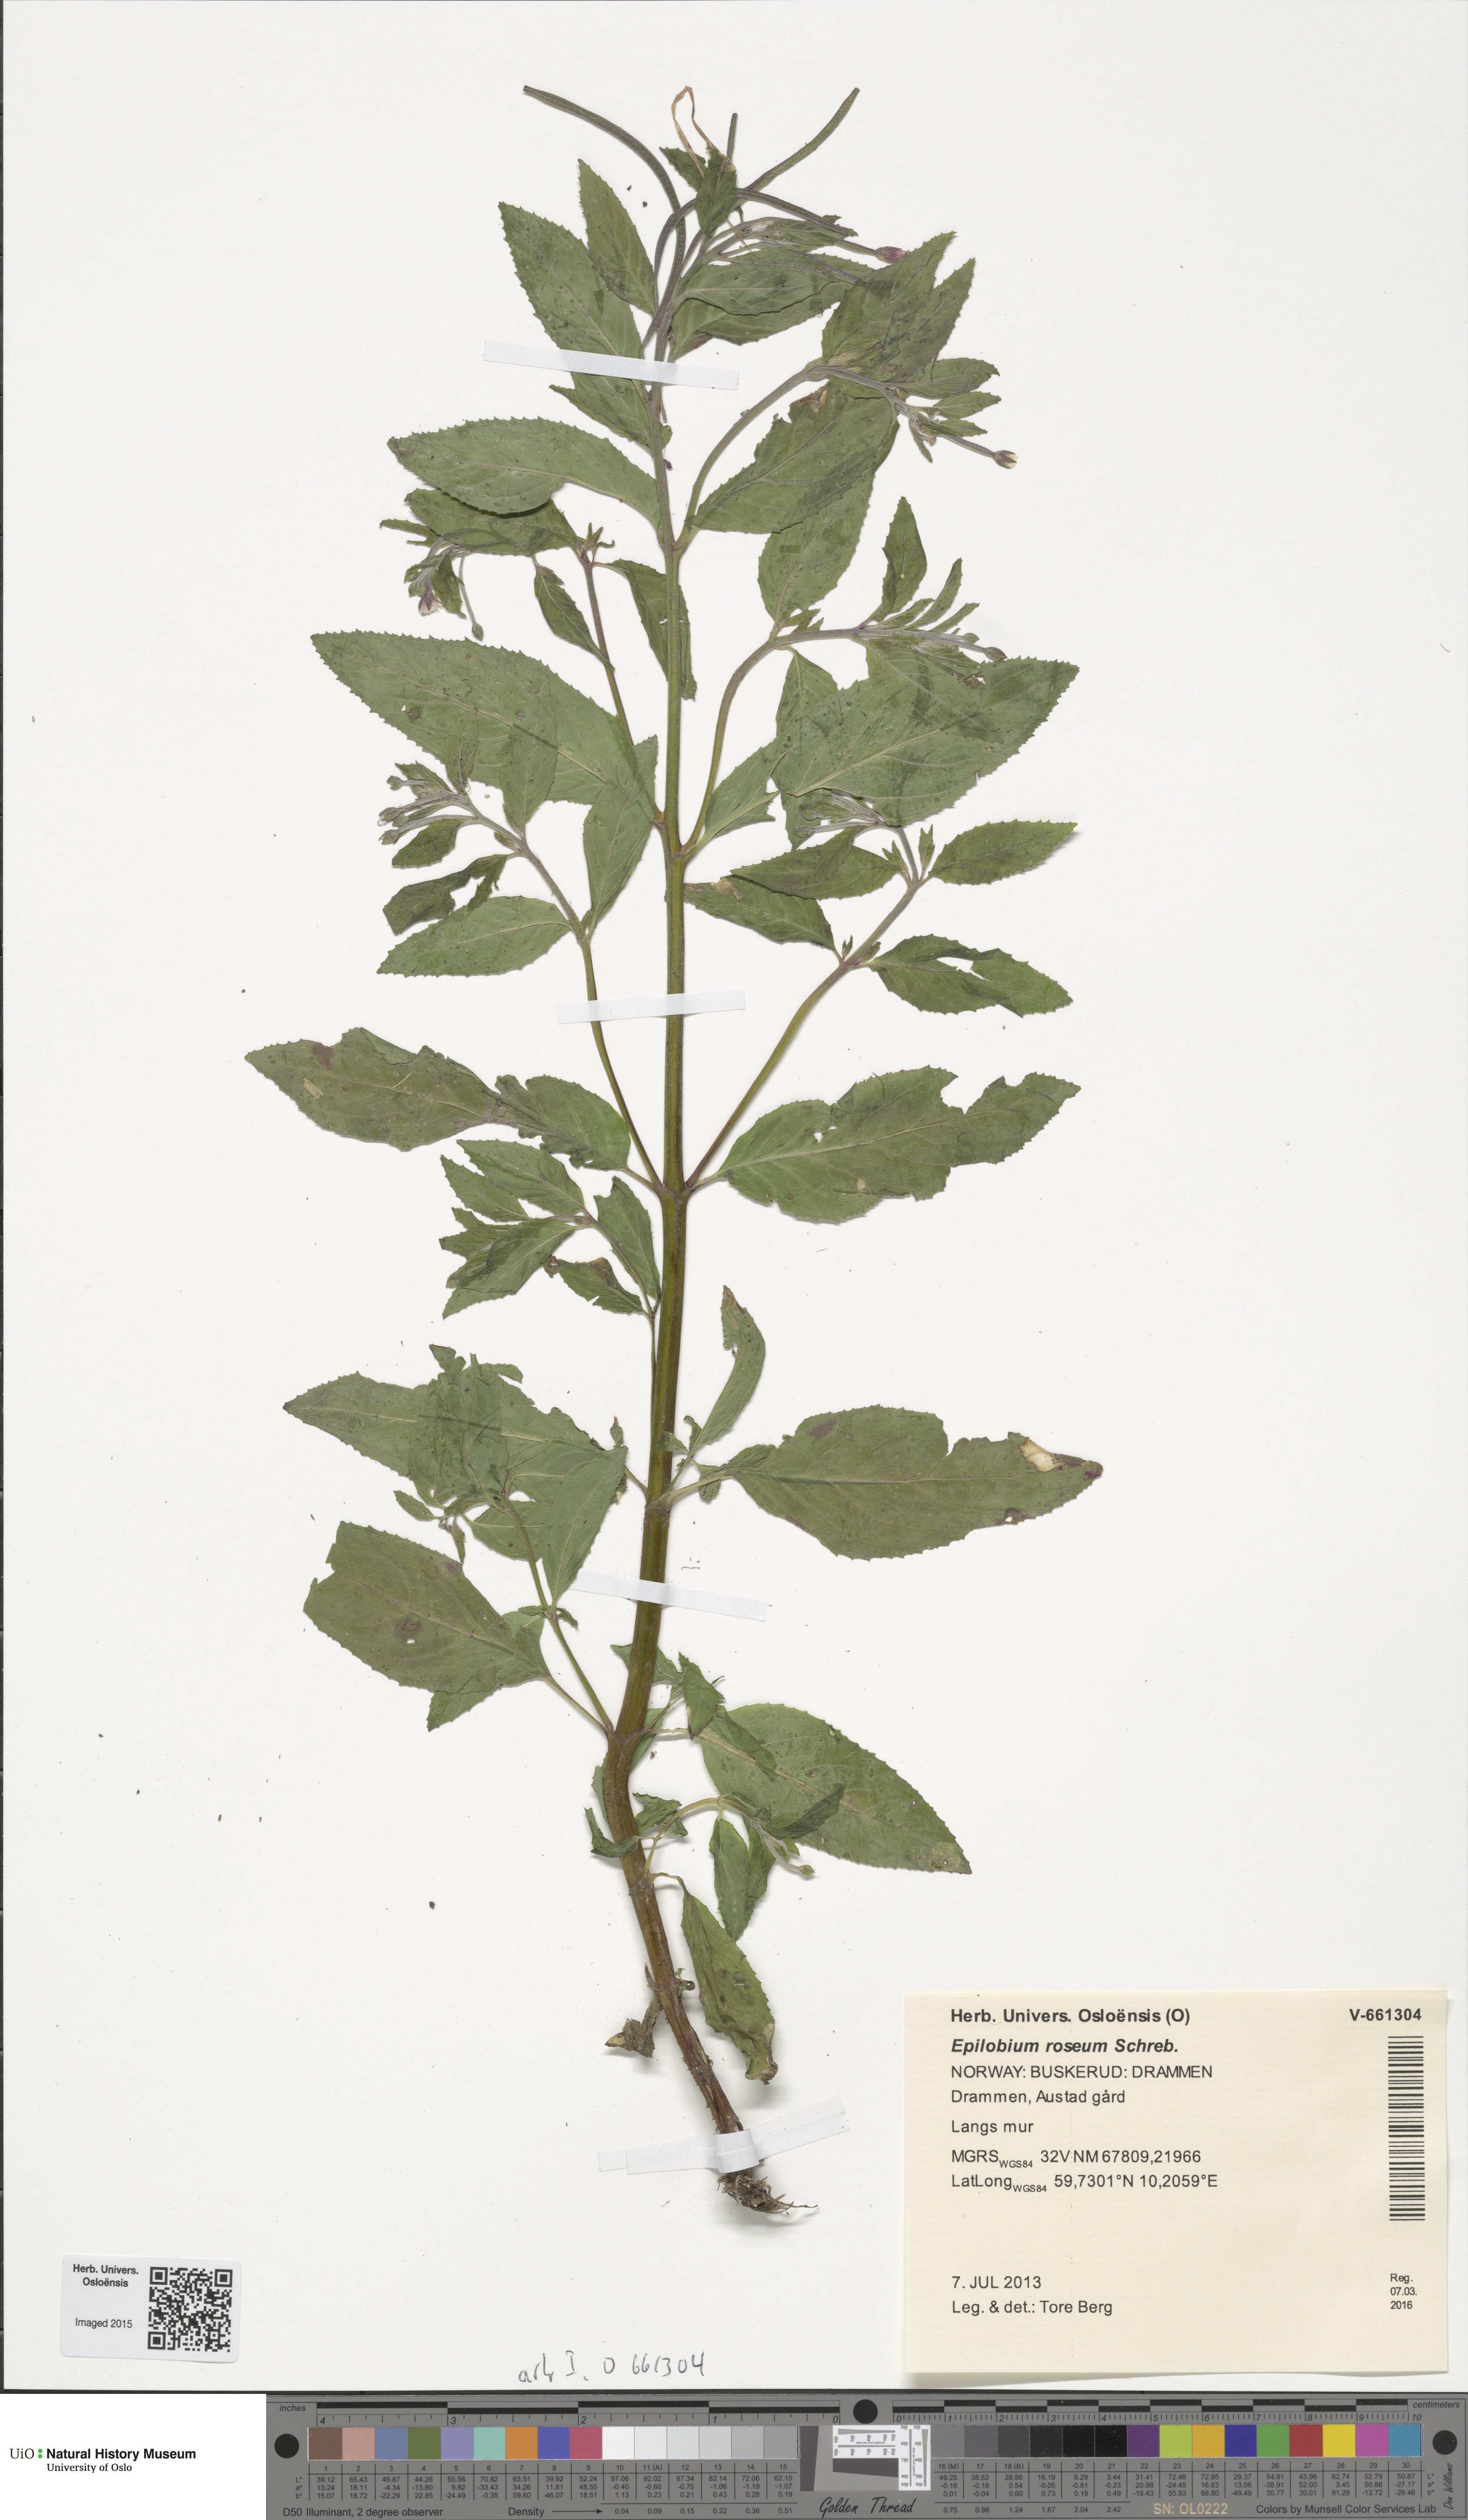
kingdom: Plantae
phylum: Tracheophyta
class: Magnoliopsida
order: Myrtales
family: Onagraceae
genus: Epilobium
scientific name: Epilobium roseum
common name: Pale willowherb
